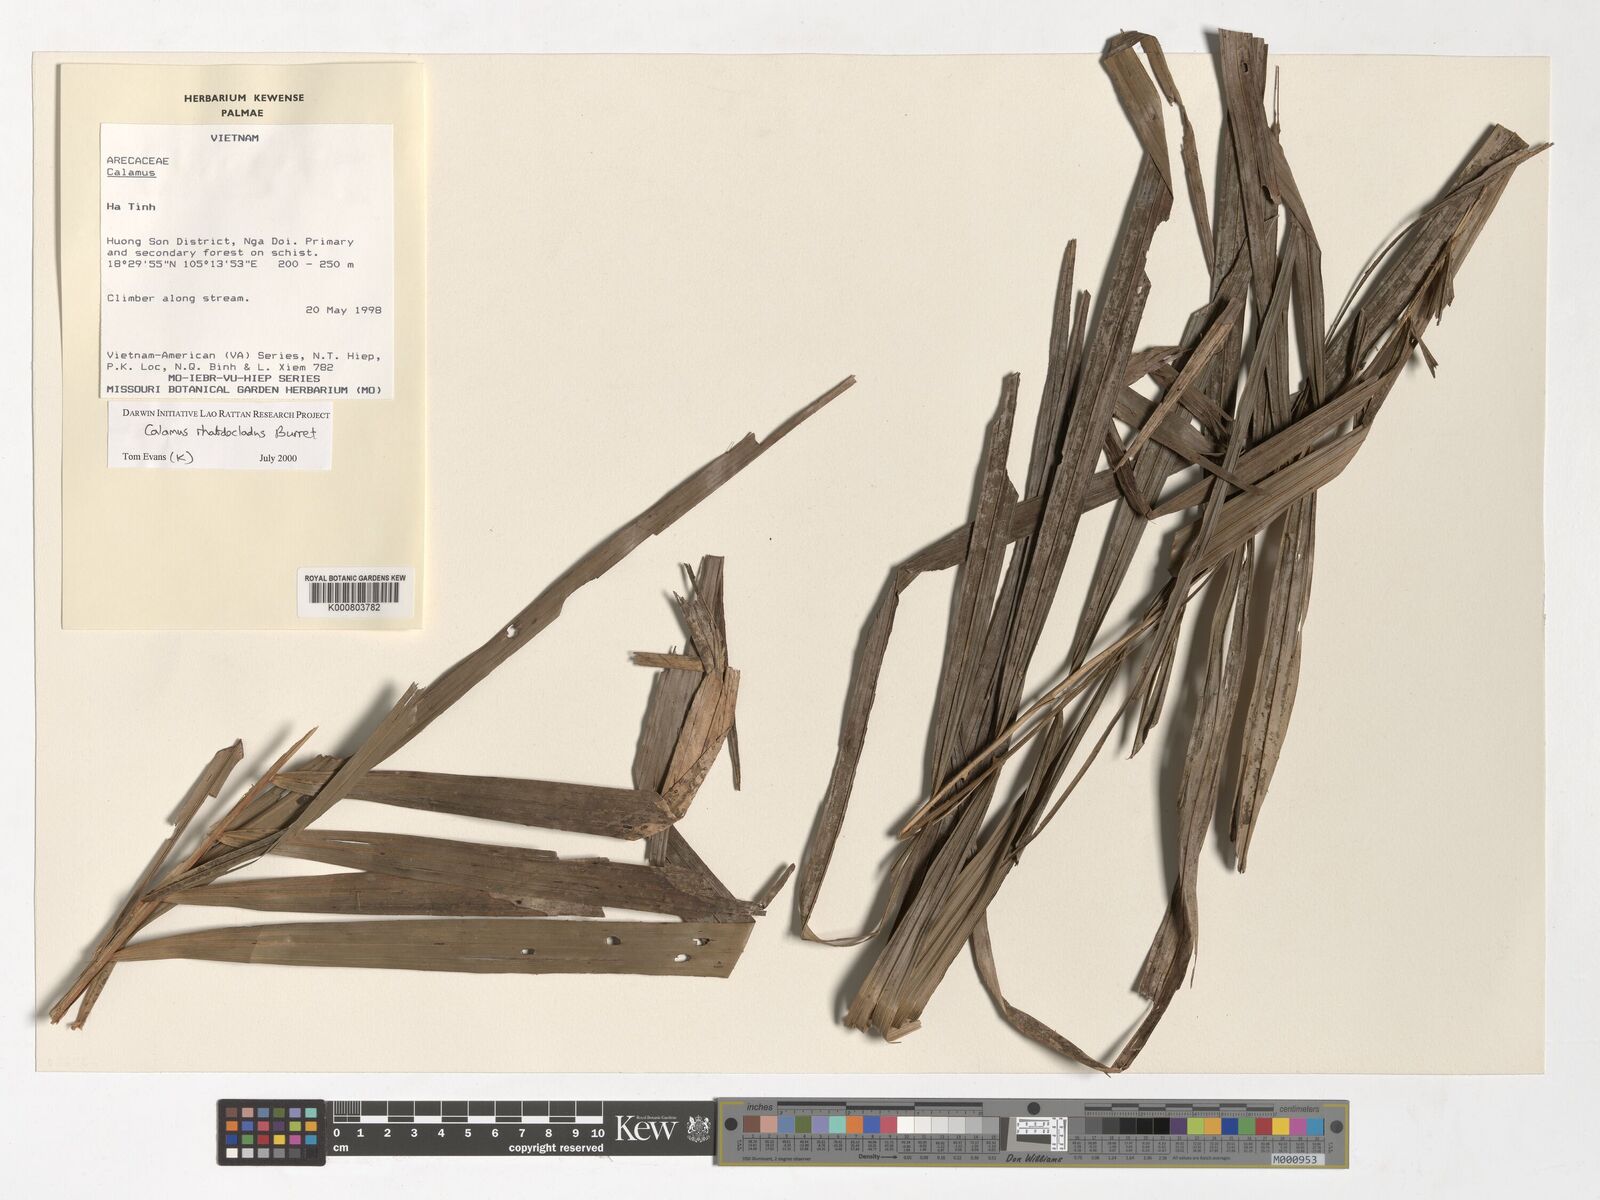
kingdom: Plantae
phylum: Tracheophyta
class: Liliopsida
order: Arecales
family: Arecaceae
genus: Calamus
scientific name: Calamus rhabdocladus
